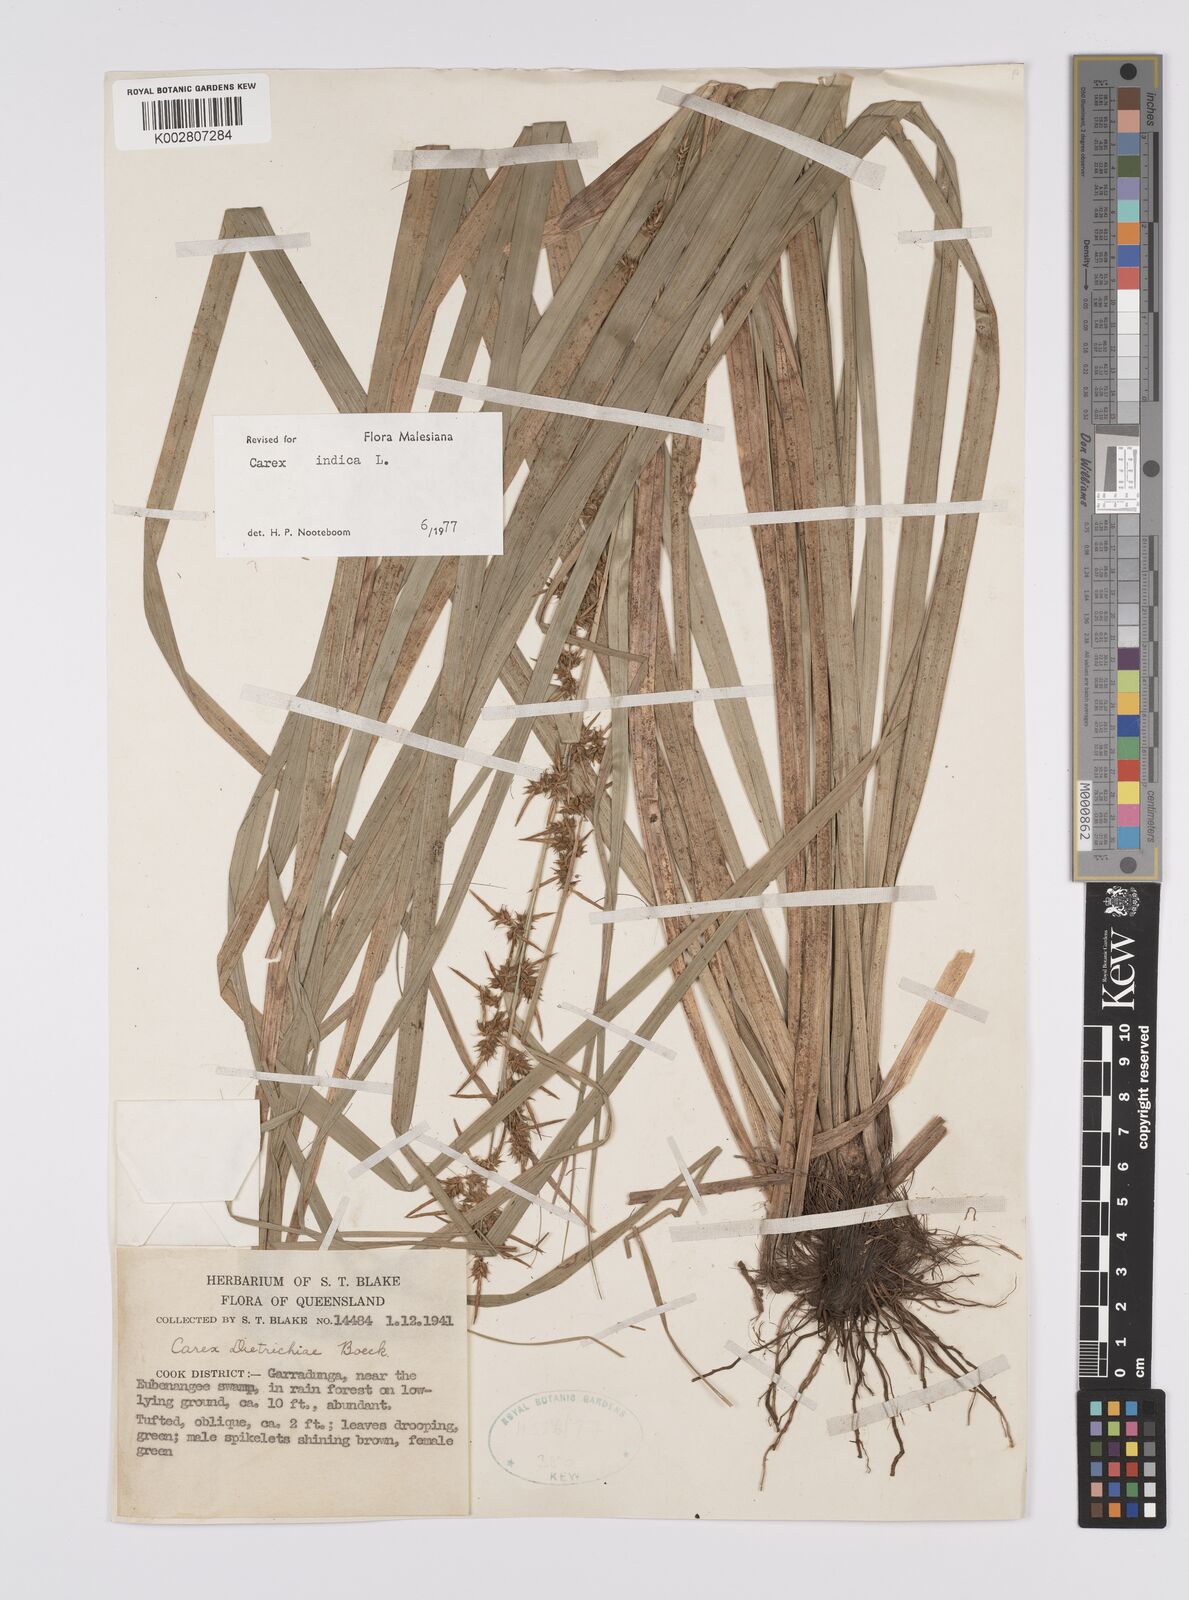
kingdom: Plantae
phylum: Tracheophyta
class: Liliopsida
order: Poales
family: Cyperaceae
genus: Carex
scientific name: Carex indica
